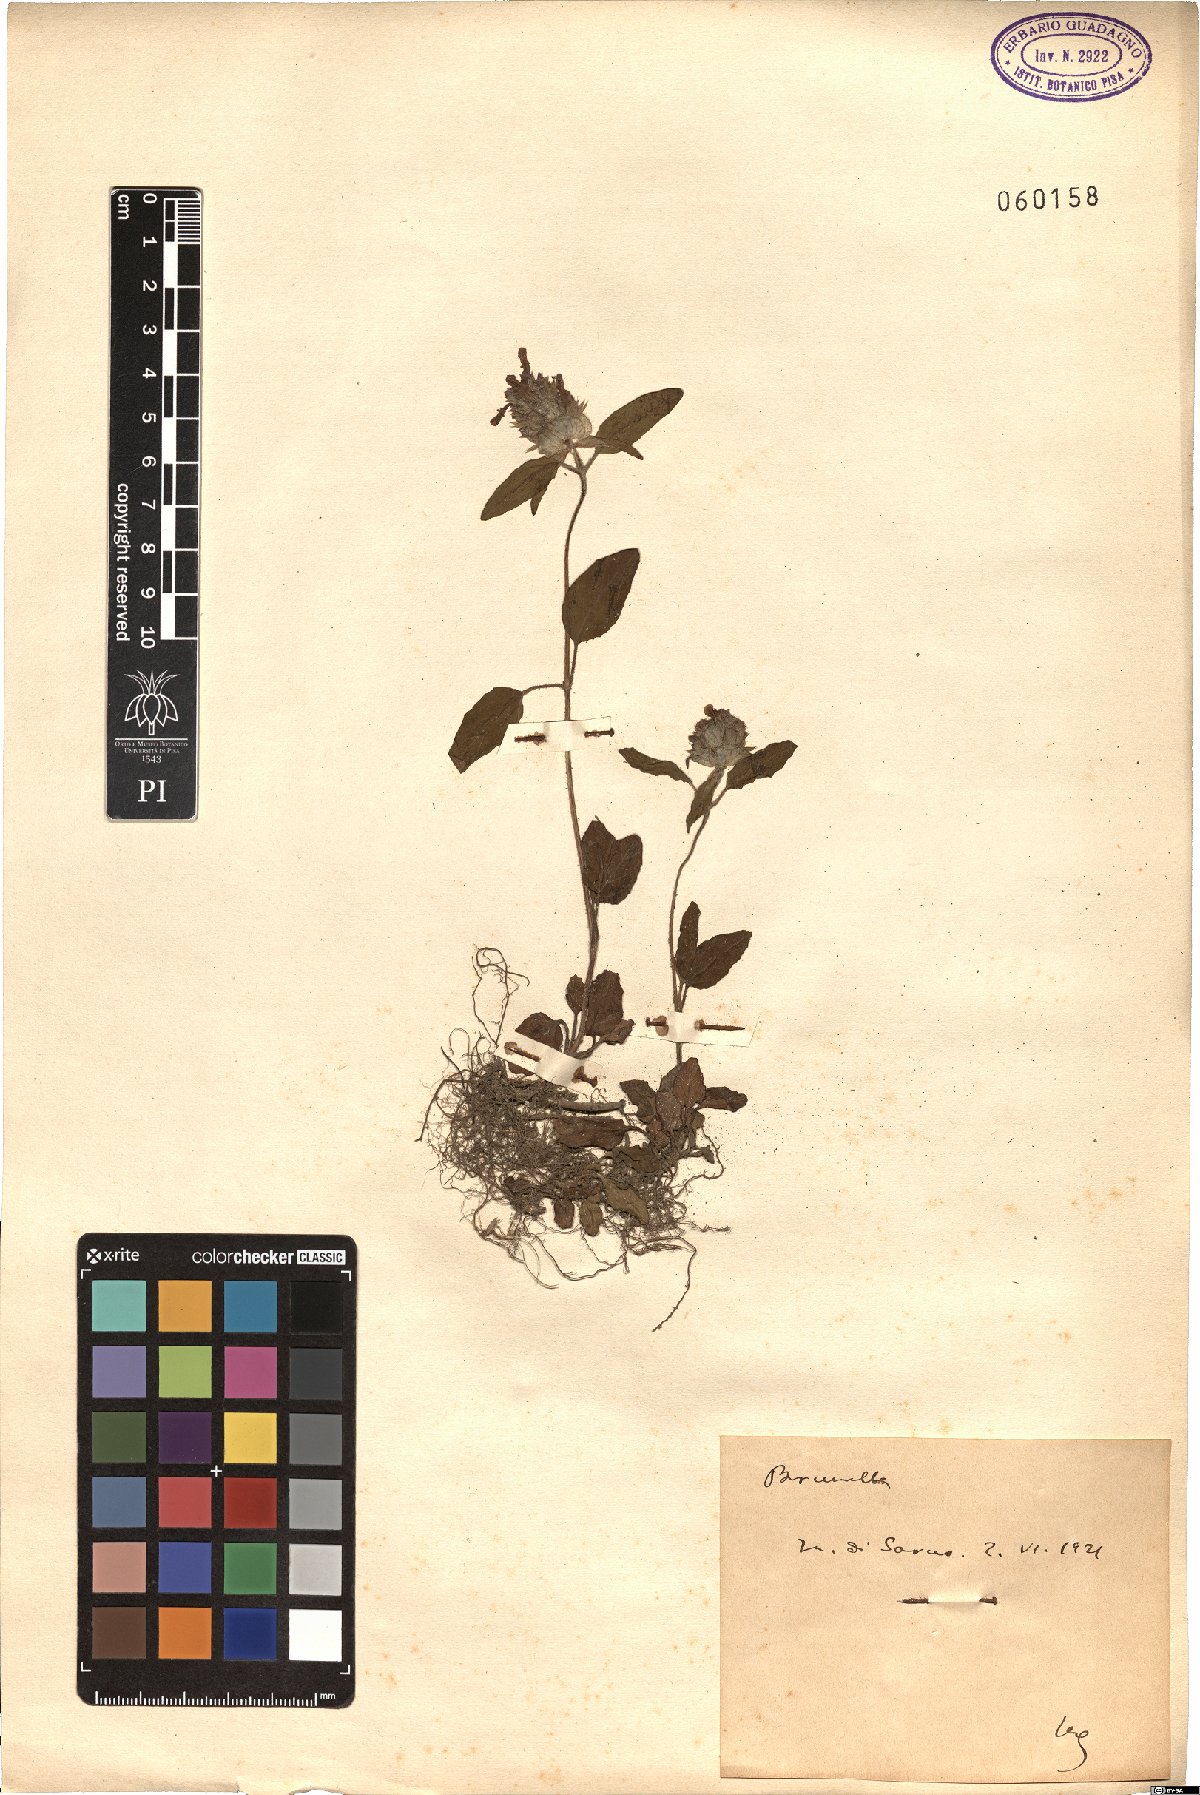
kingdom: Plantae
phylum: Tracheophyta
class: Magnoliopsida
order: Lamiales
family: Lamiaceae
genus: Brunella
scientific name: Brunella
